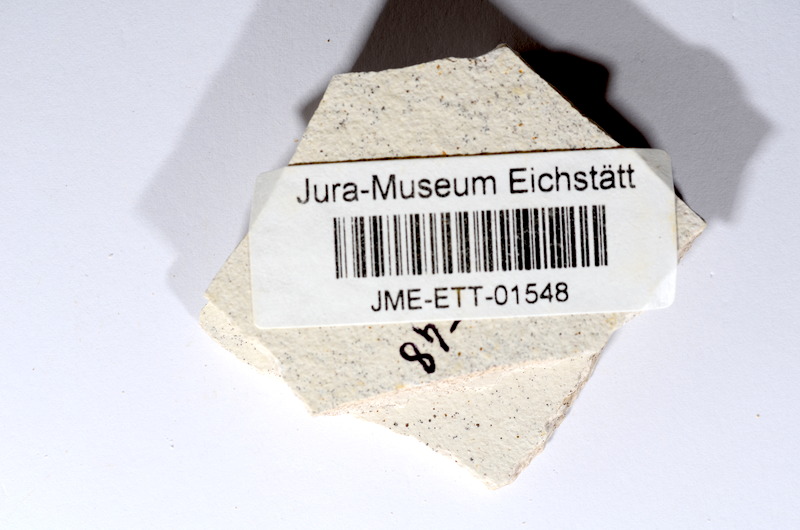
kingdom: Animalia
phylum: Chordata
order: Salmoniformes
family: Orthogonikleithridae
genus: Orthogonikleithrus
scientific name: Orthogonikleithrus hoelli
